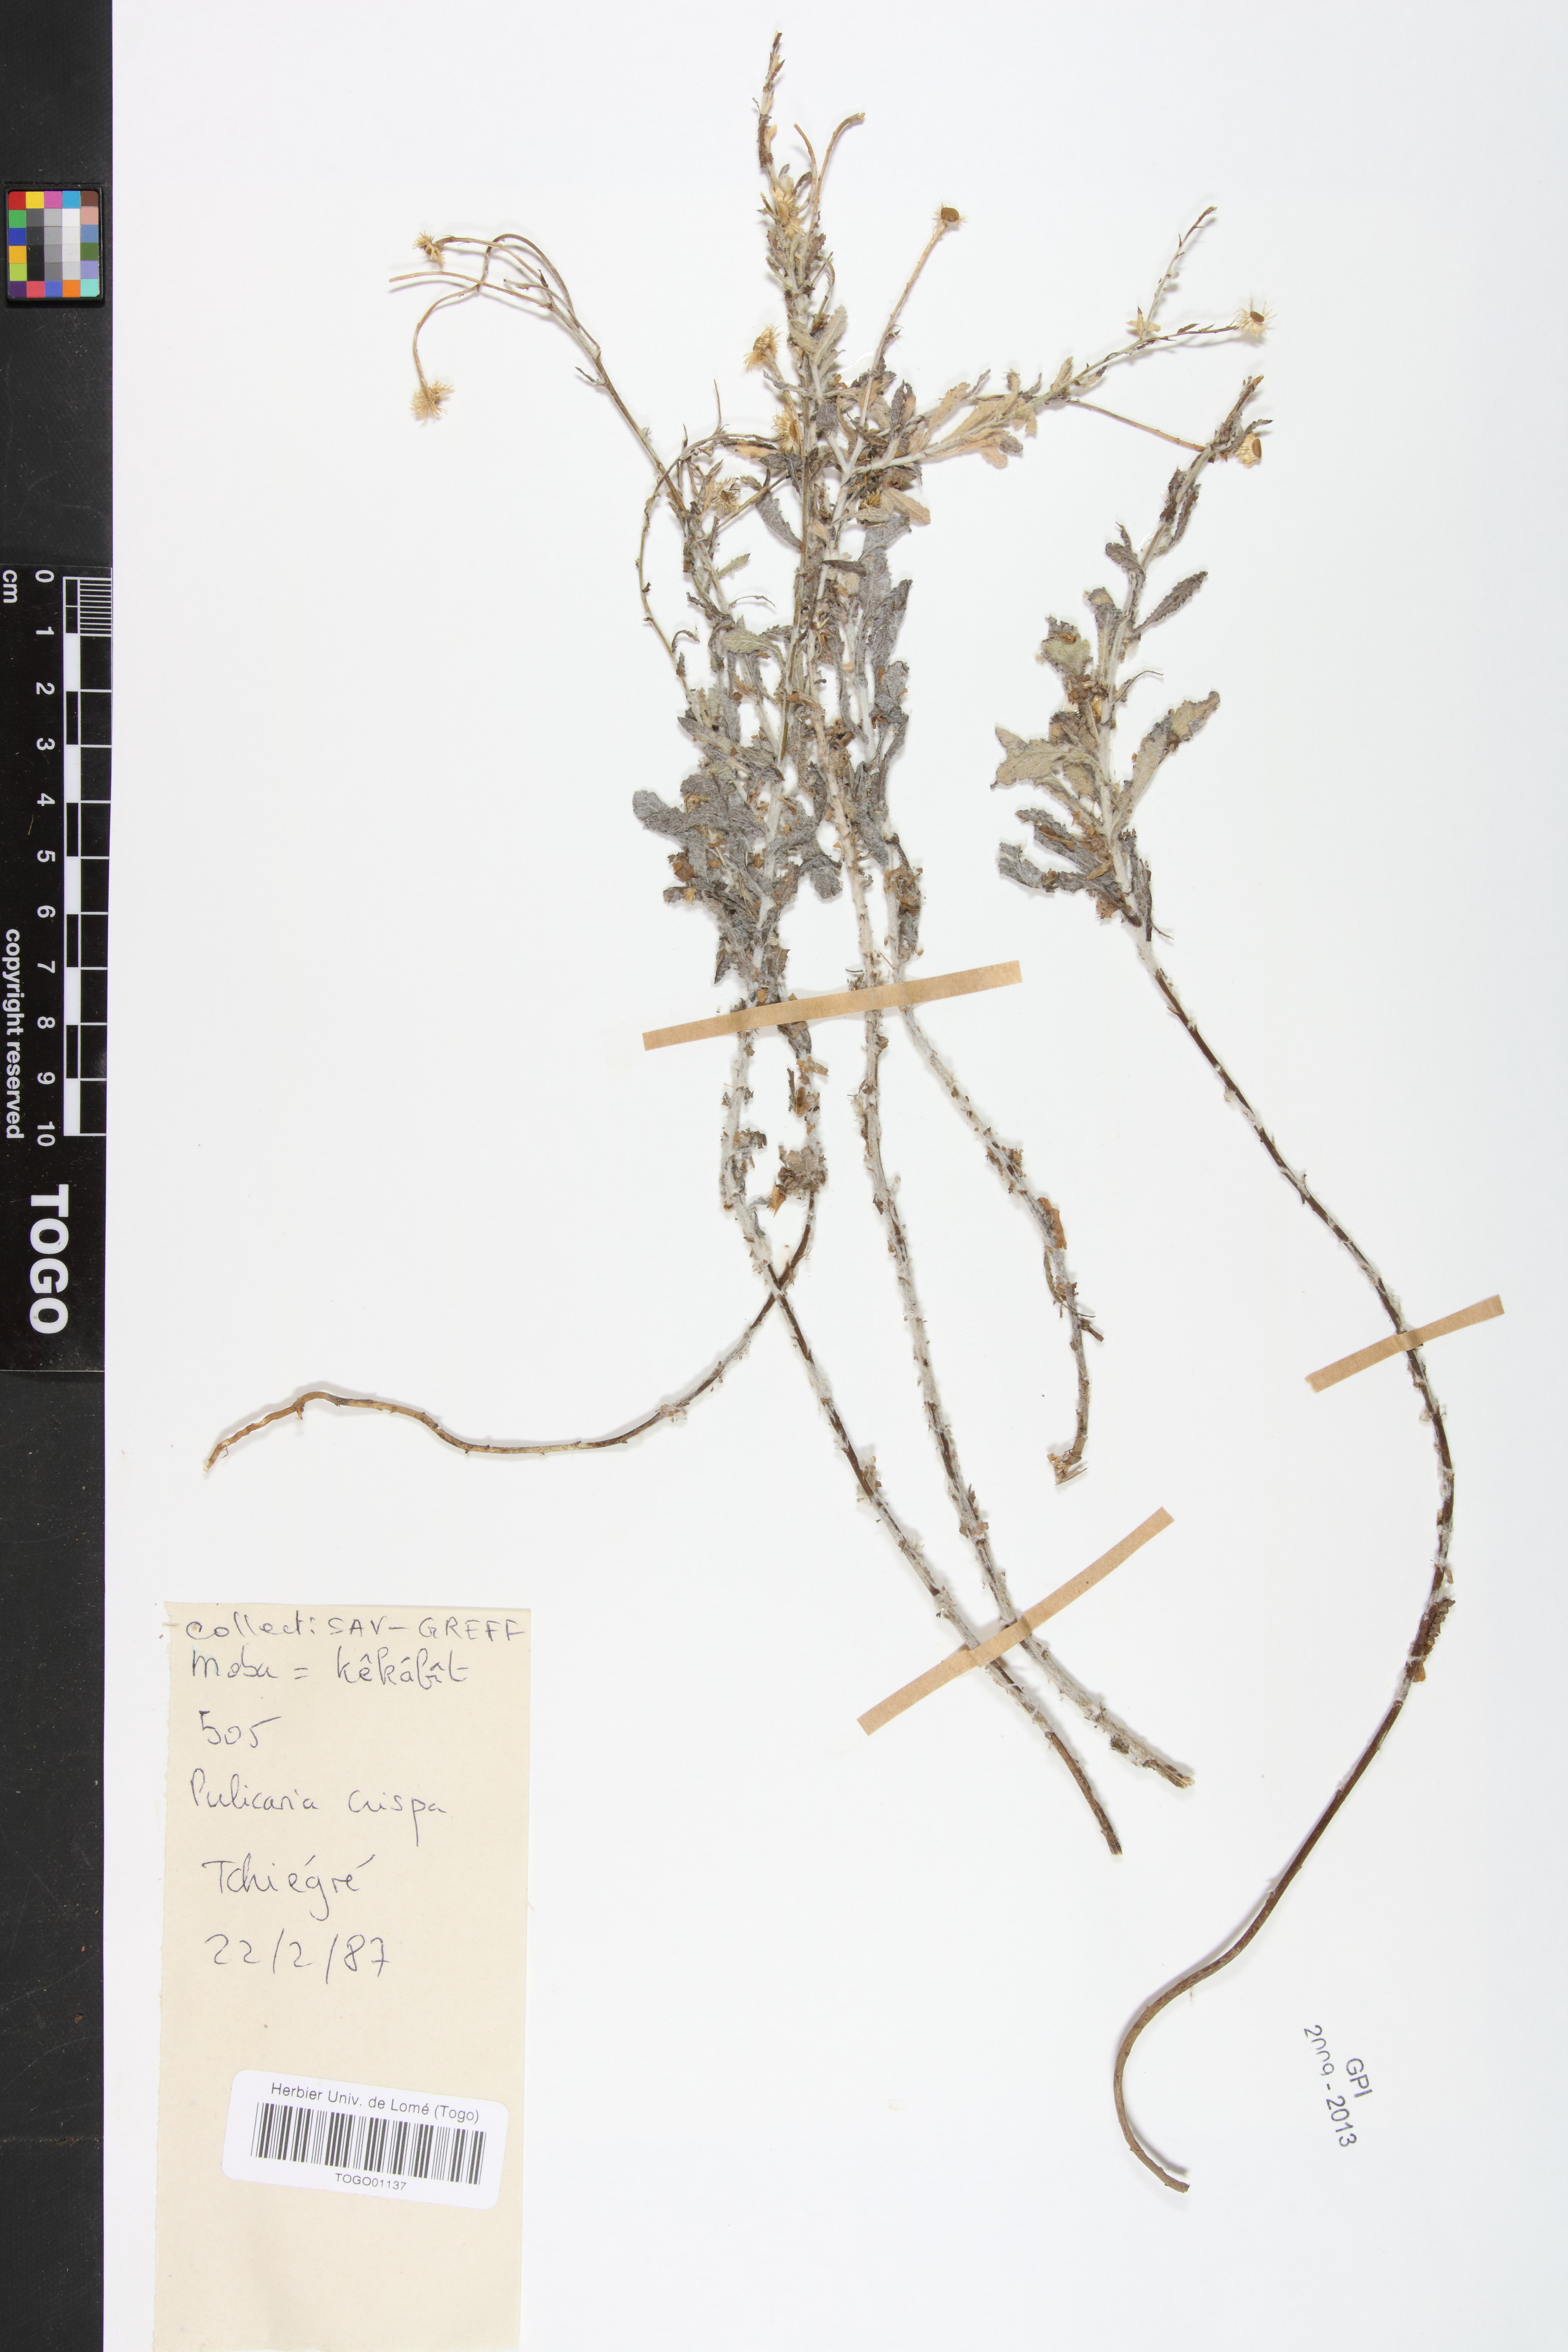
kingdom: Plantae
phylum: Tracheophyta
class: Magnoliopsida
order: Asterales
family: Asteraceae
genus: Pulicaria
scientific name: Pulicaria undulata
